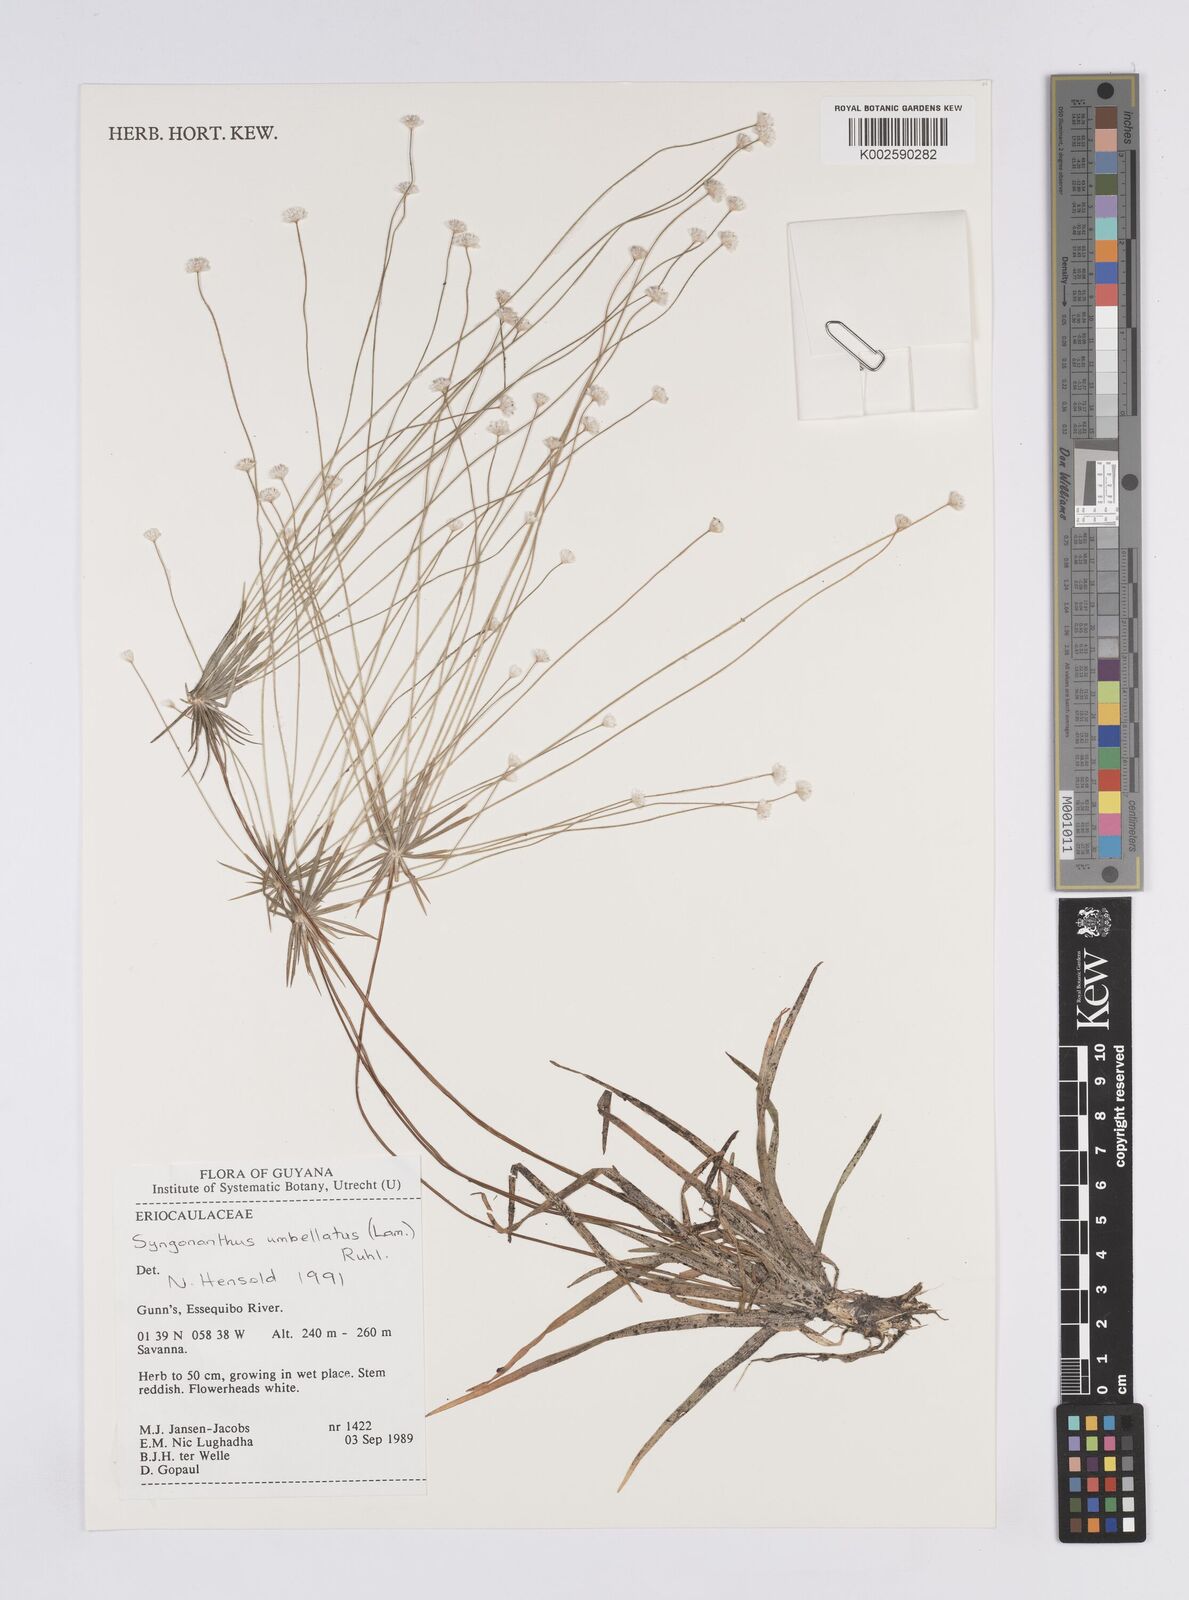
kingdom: Plantae
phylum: Tracheophyta
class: Liliopsida
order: Poales
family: Eriocaulaceae
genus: Syngonanthus
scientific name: Syngonanthus umbellatus
